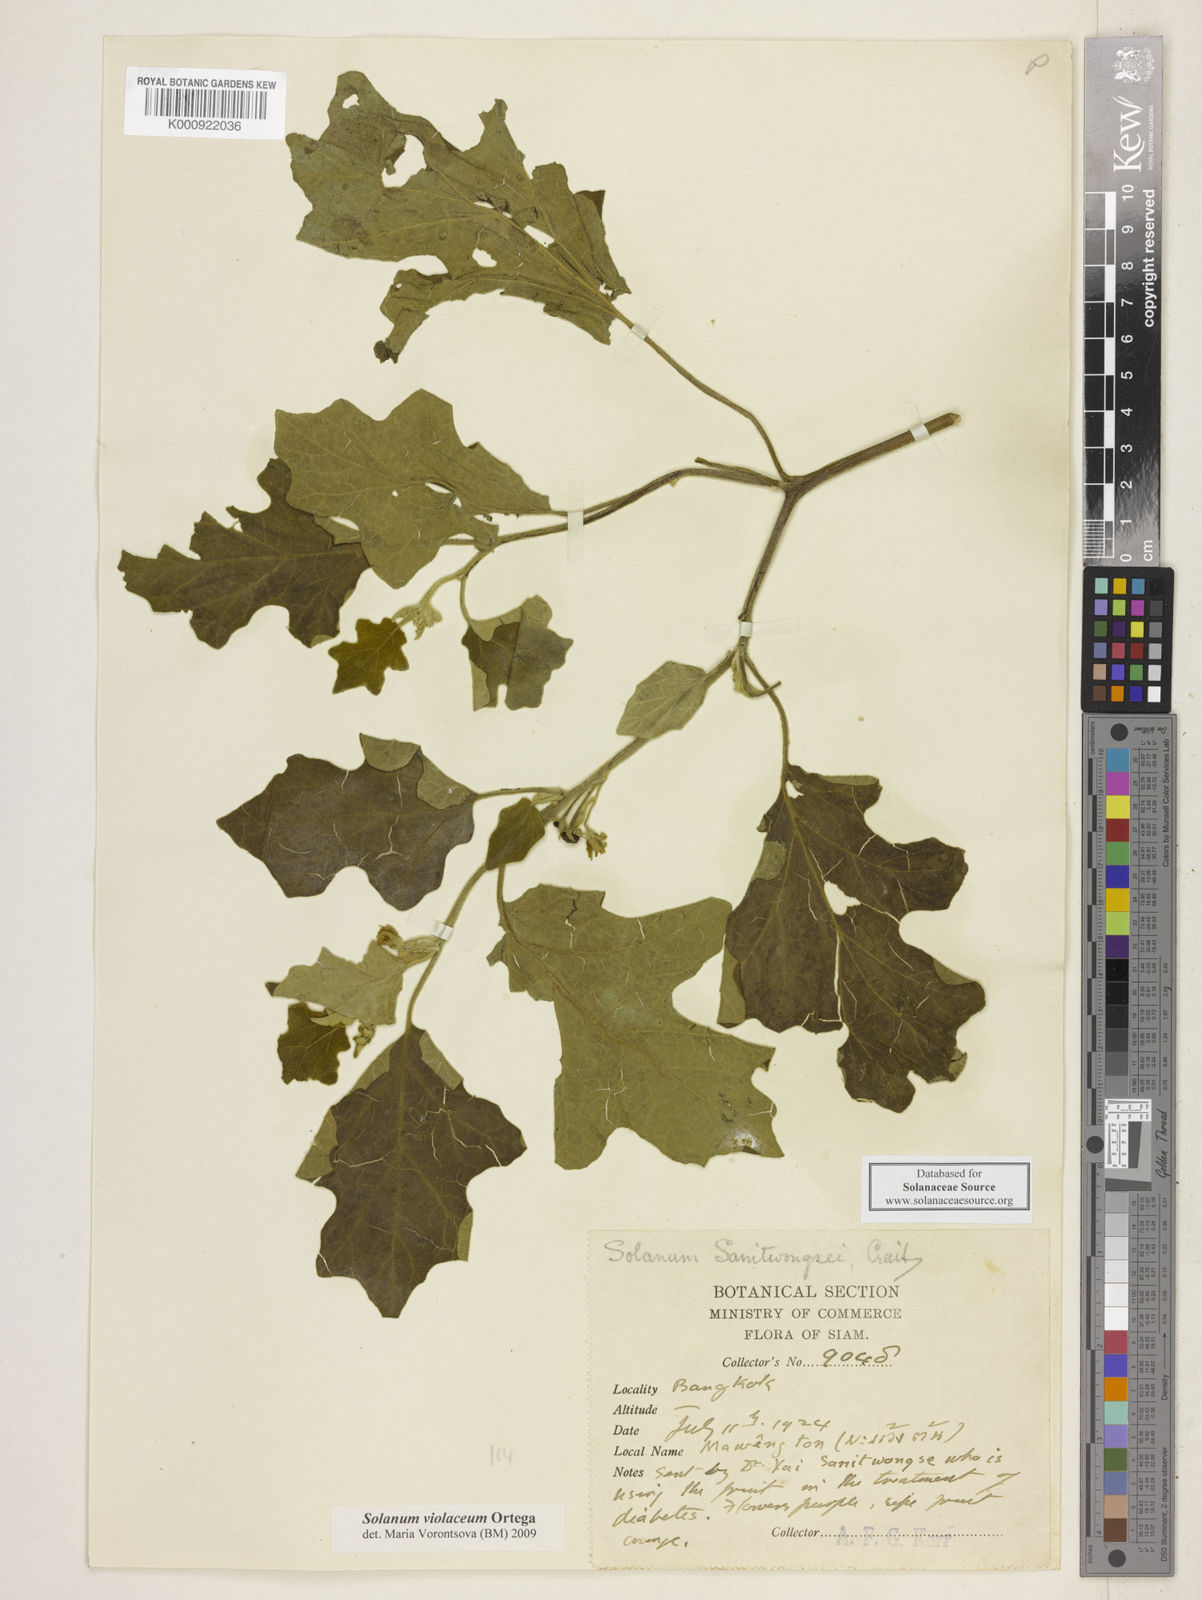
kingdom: Plantae
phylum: Tracheophyta
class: Magnoliopsida
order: Solanales
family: Solanaceae
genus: Solanum
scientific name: Solanum violaceum
